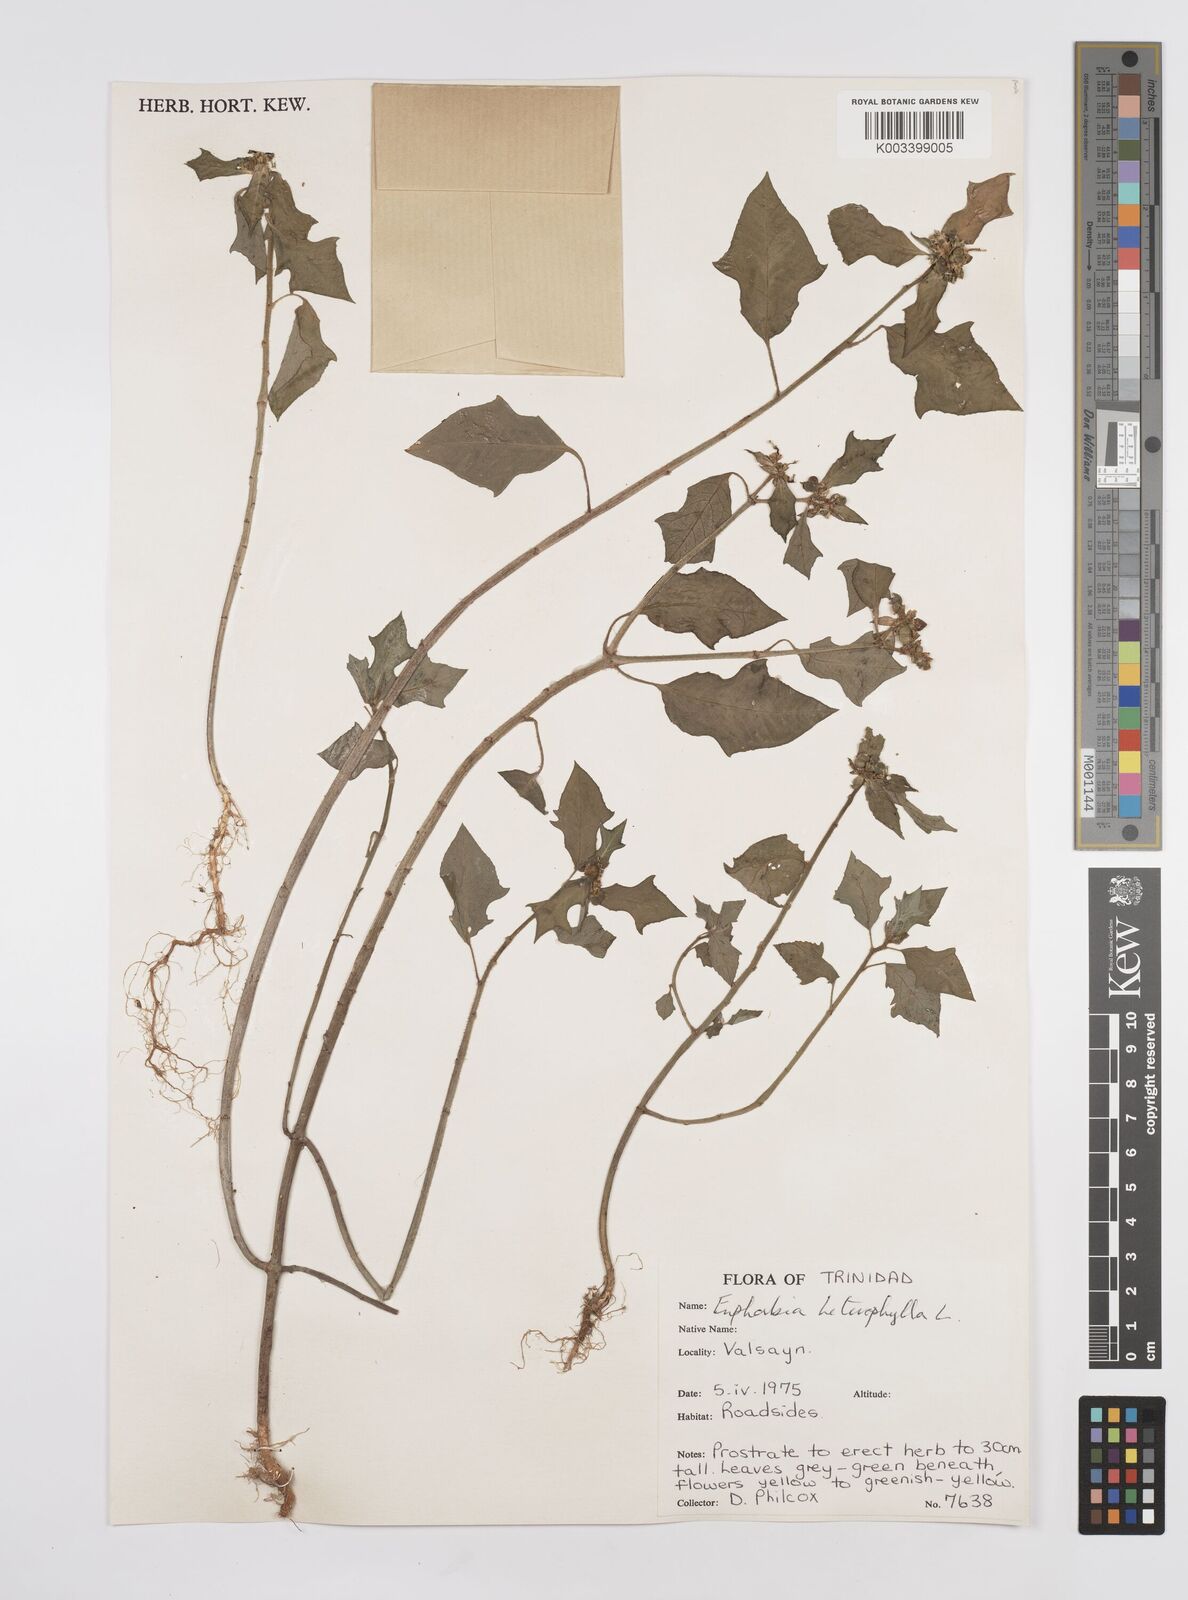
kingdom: Plantae
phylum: Tracheophyta
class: Magnoliopsida
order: Malpighiales
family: Euphorbiaceae
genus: Euphorbia
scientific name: Euphorbia heterophylla
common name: Mexican fireplant
